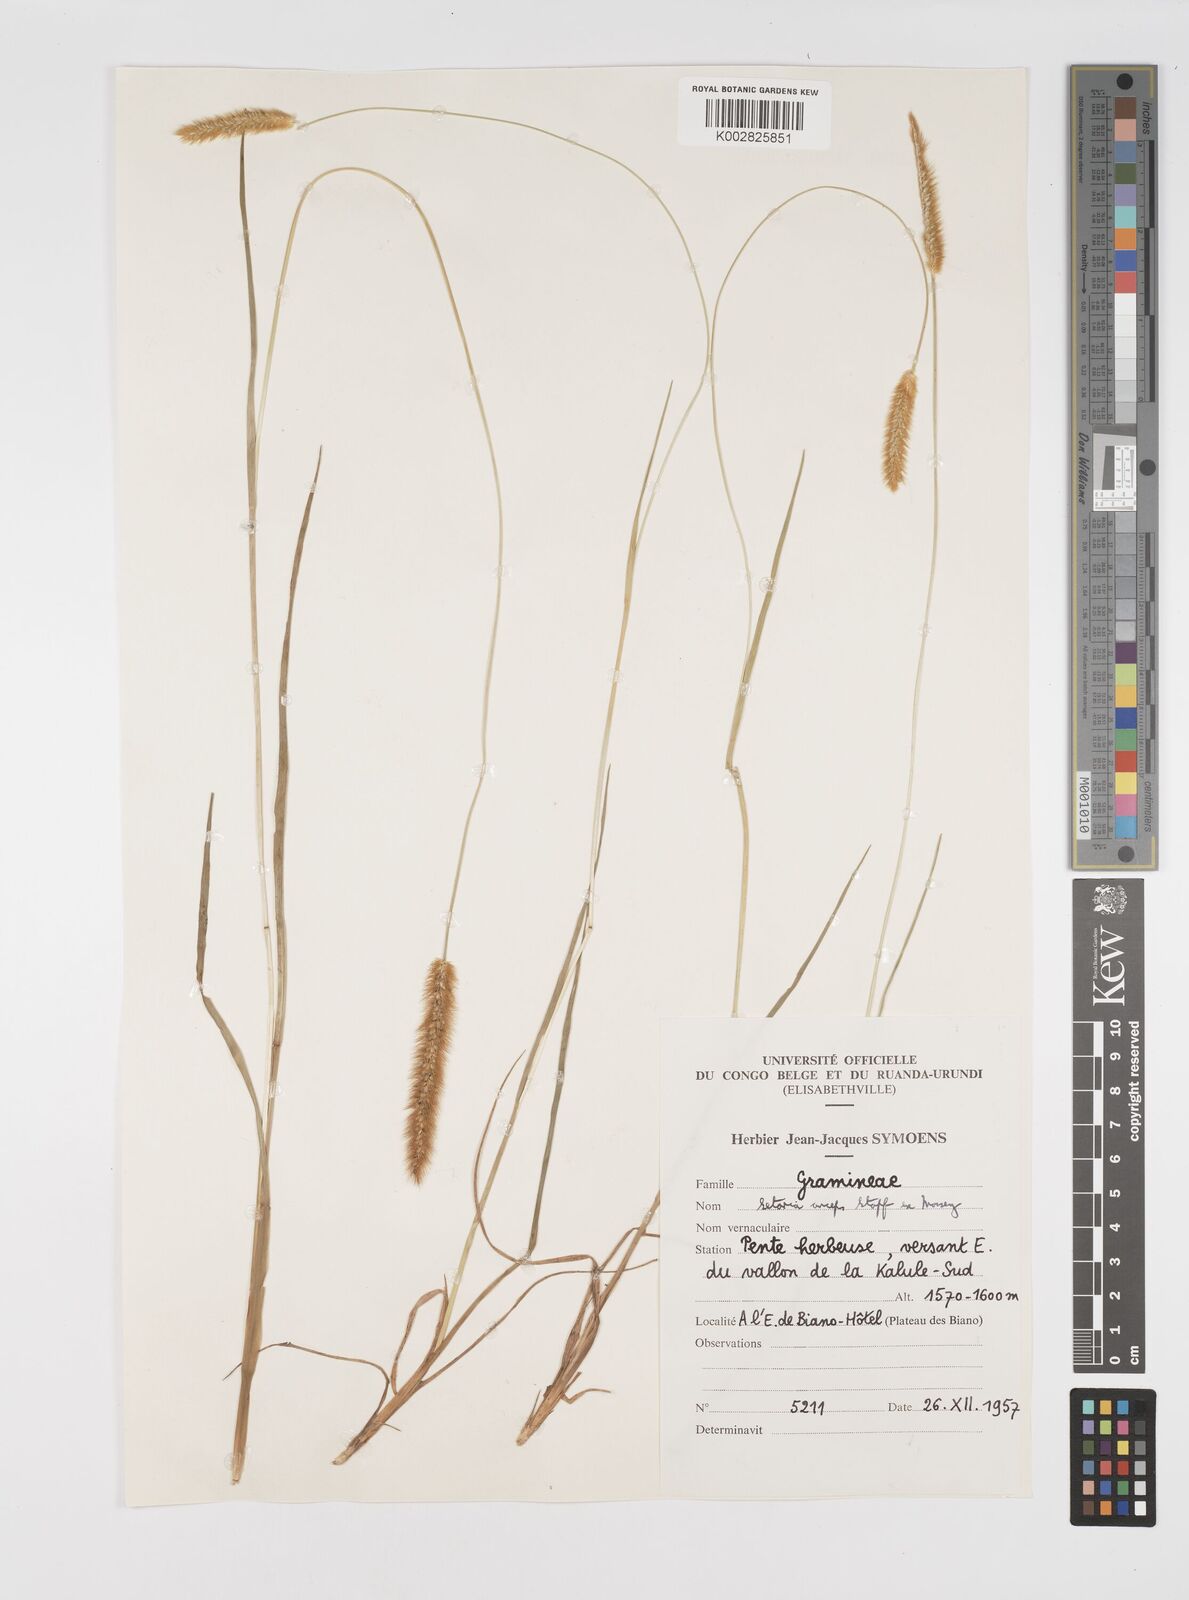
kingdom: Plantae
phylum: Tracheophyta
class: Liliopsida
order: Poales
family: Poaceae
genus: Setaria
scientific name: Setaria sphacelata
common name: African bristlegrass
